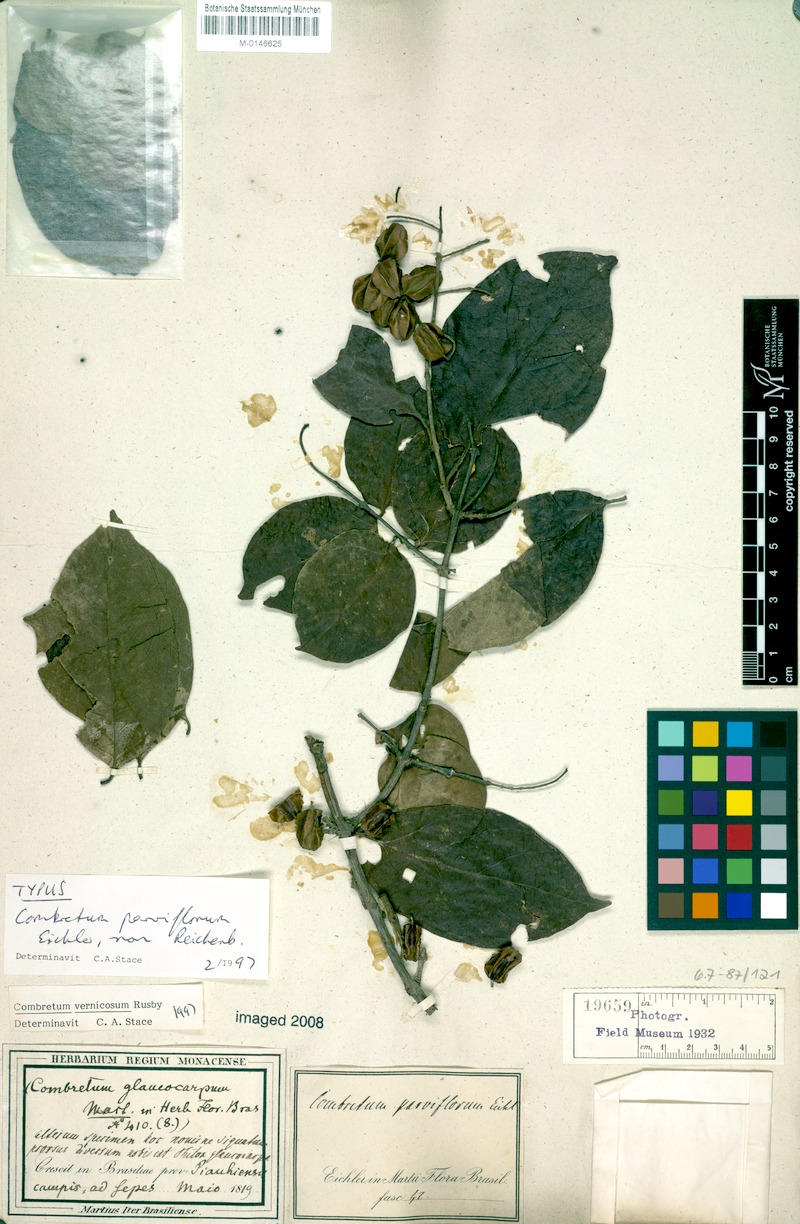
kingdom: Plantae
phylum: Tracheophyta
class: Magnoliopsida
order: Myrtales
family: Combretaceae
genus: Combretum
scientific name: Combretum vernicosum
